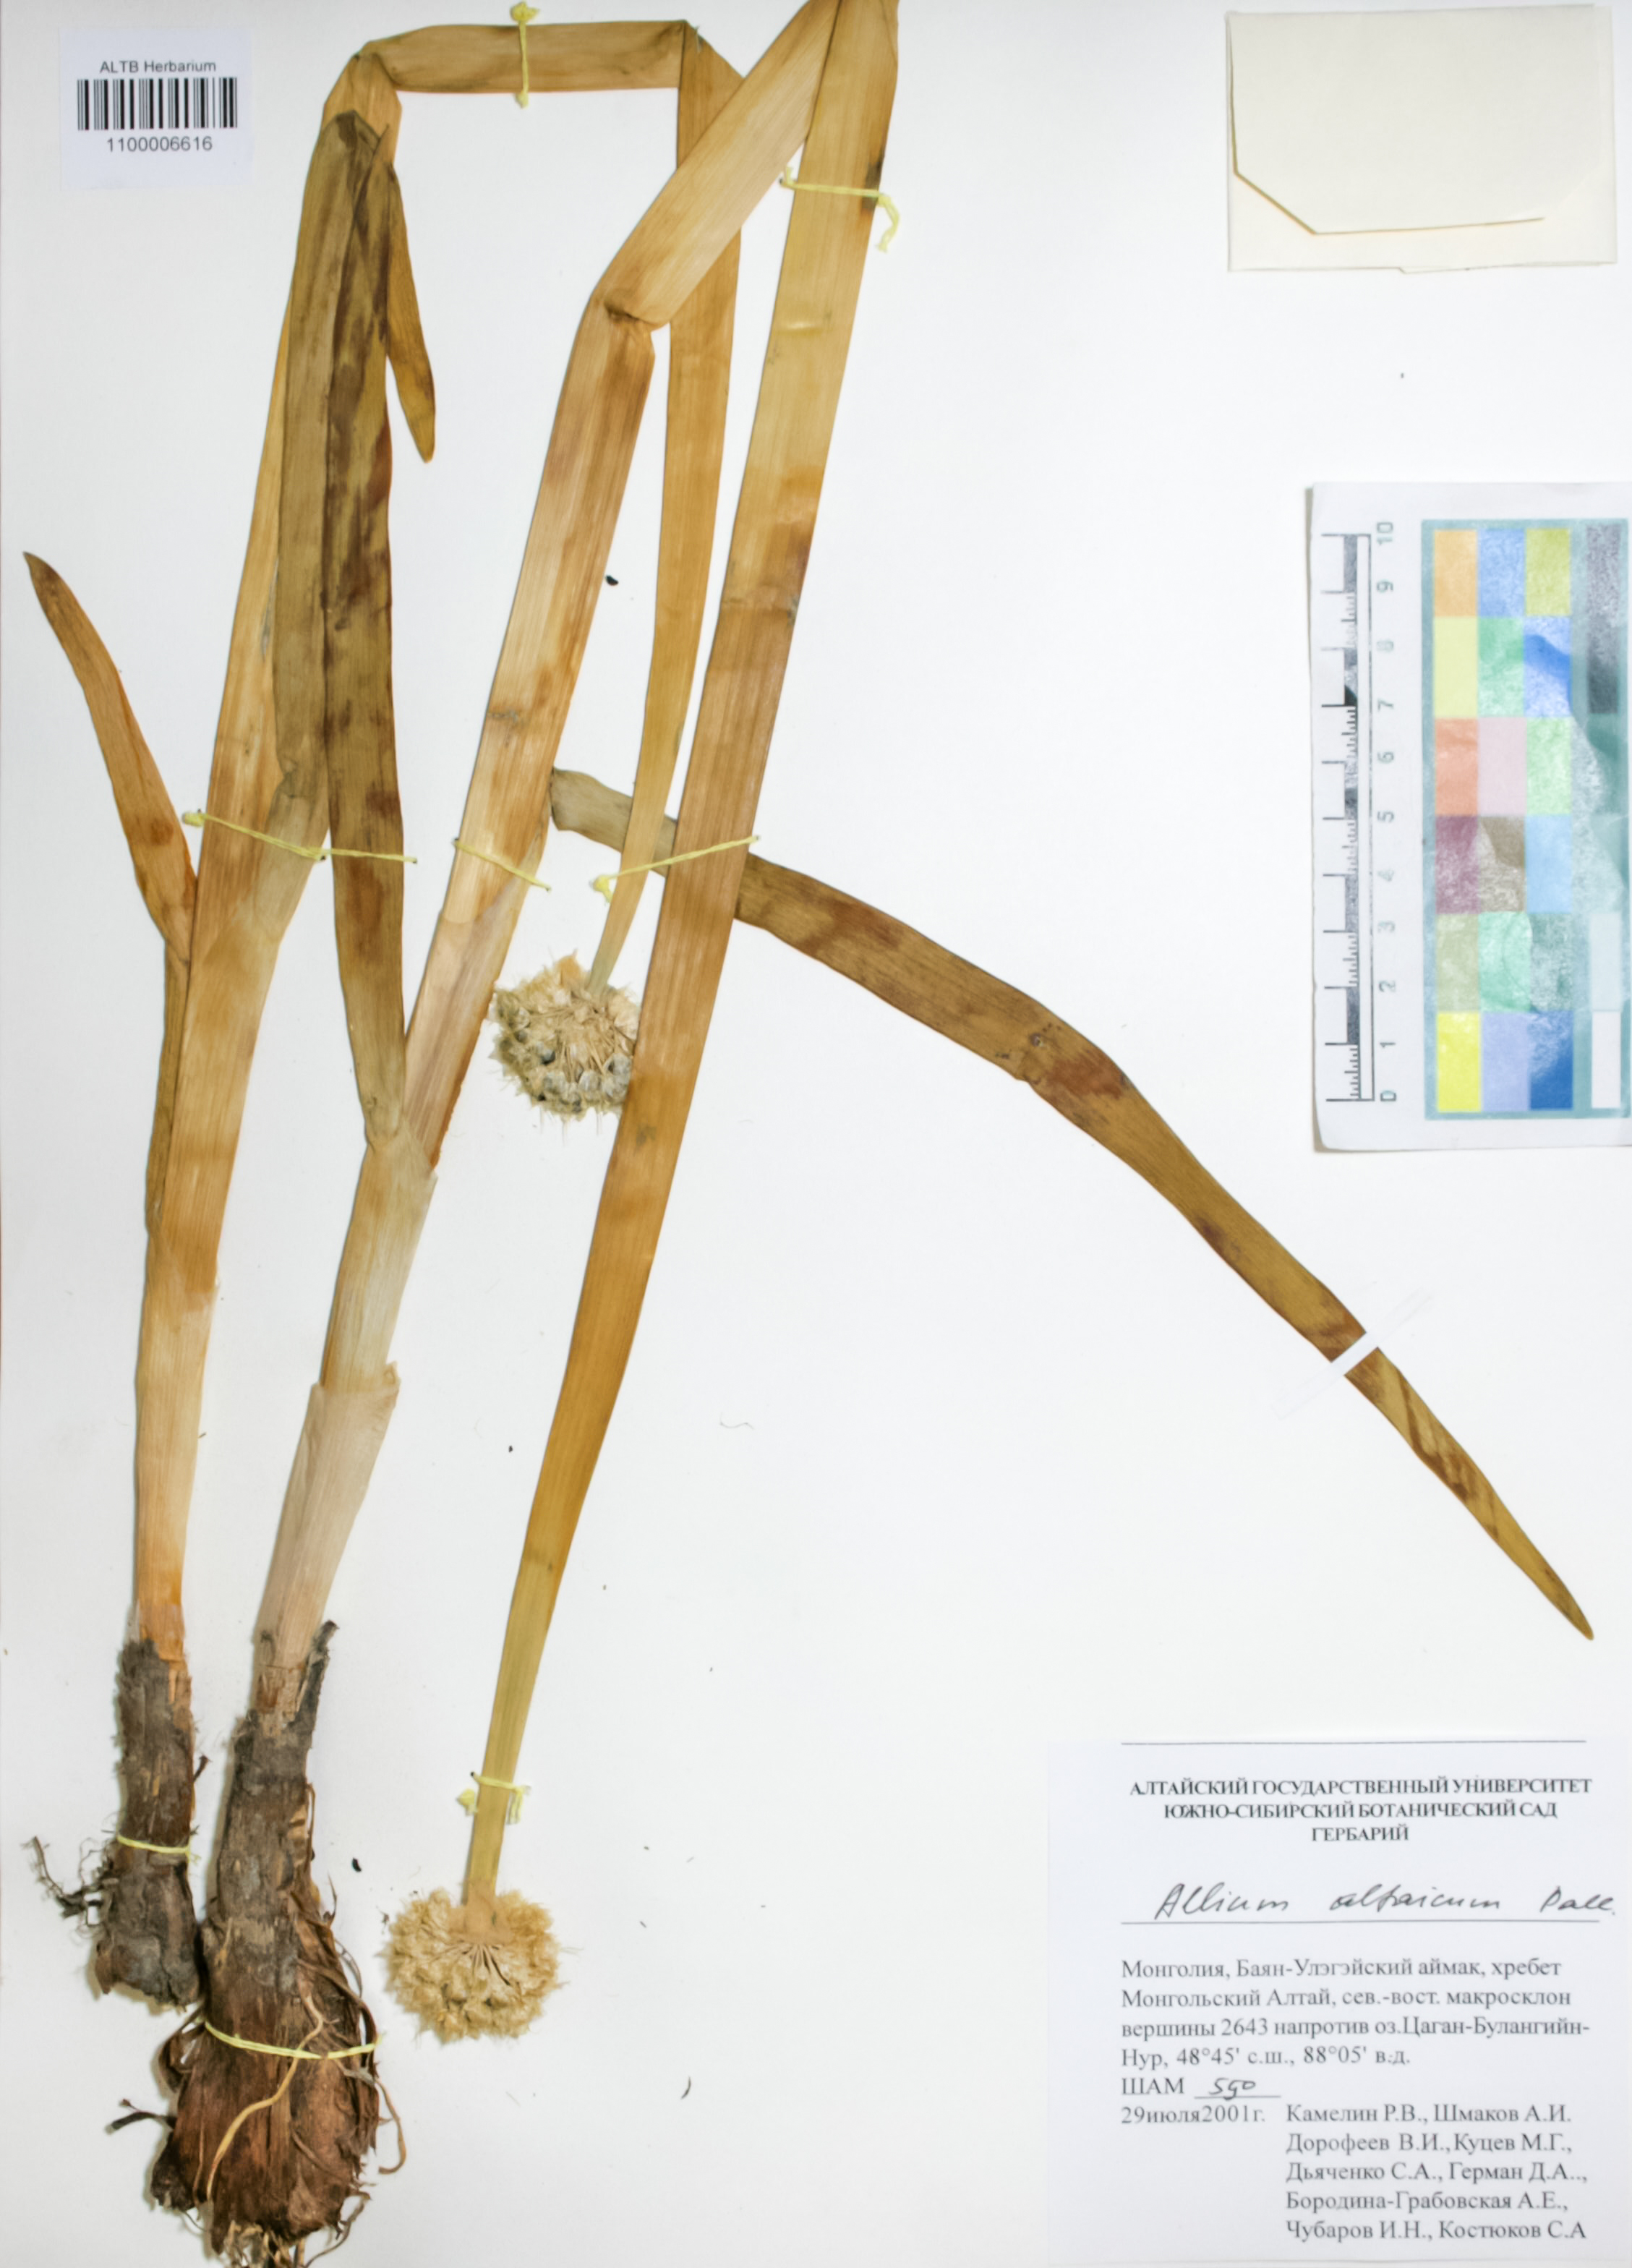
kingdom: Plantae
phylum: Tracheophyta
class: Liliopsida
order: Asparagales
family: Amaryllidaceae
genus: Allium
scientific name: Allium altaicum
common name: Altai onion
